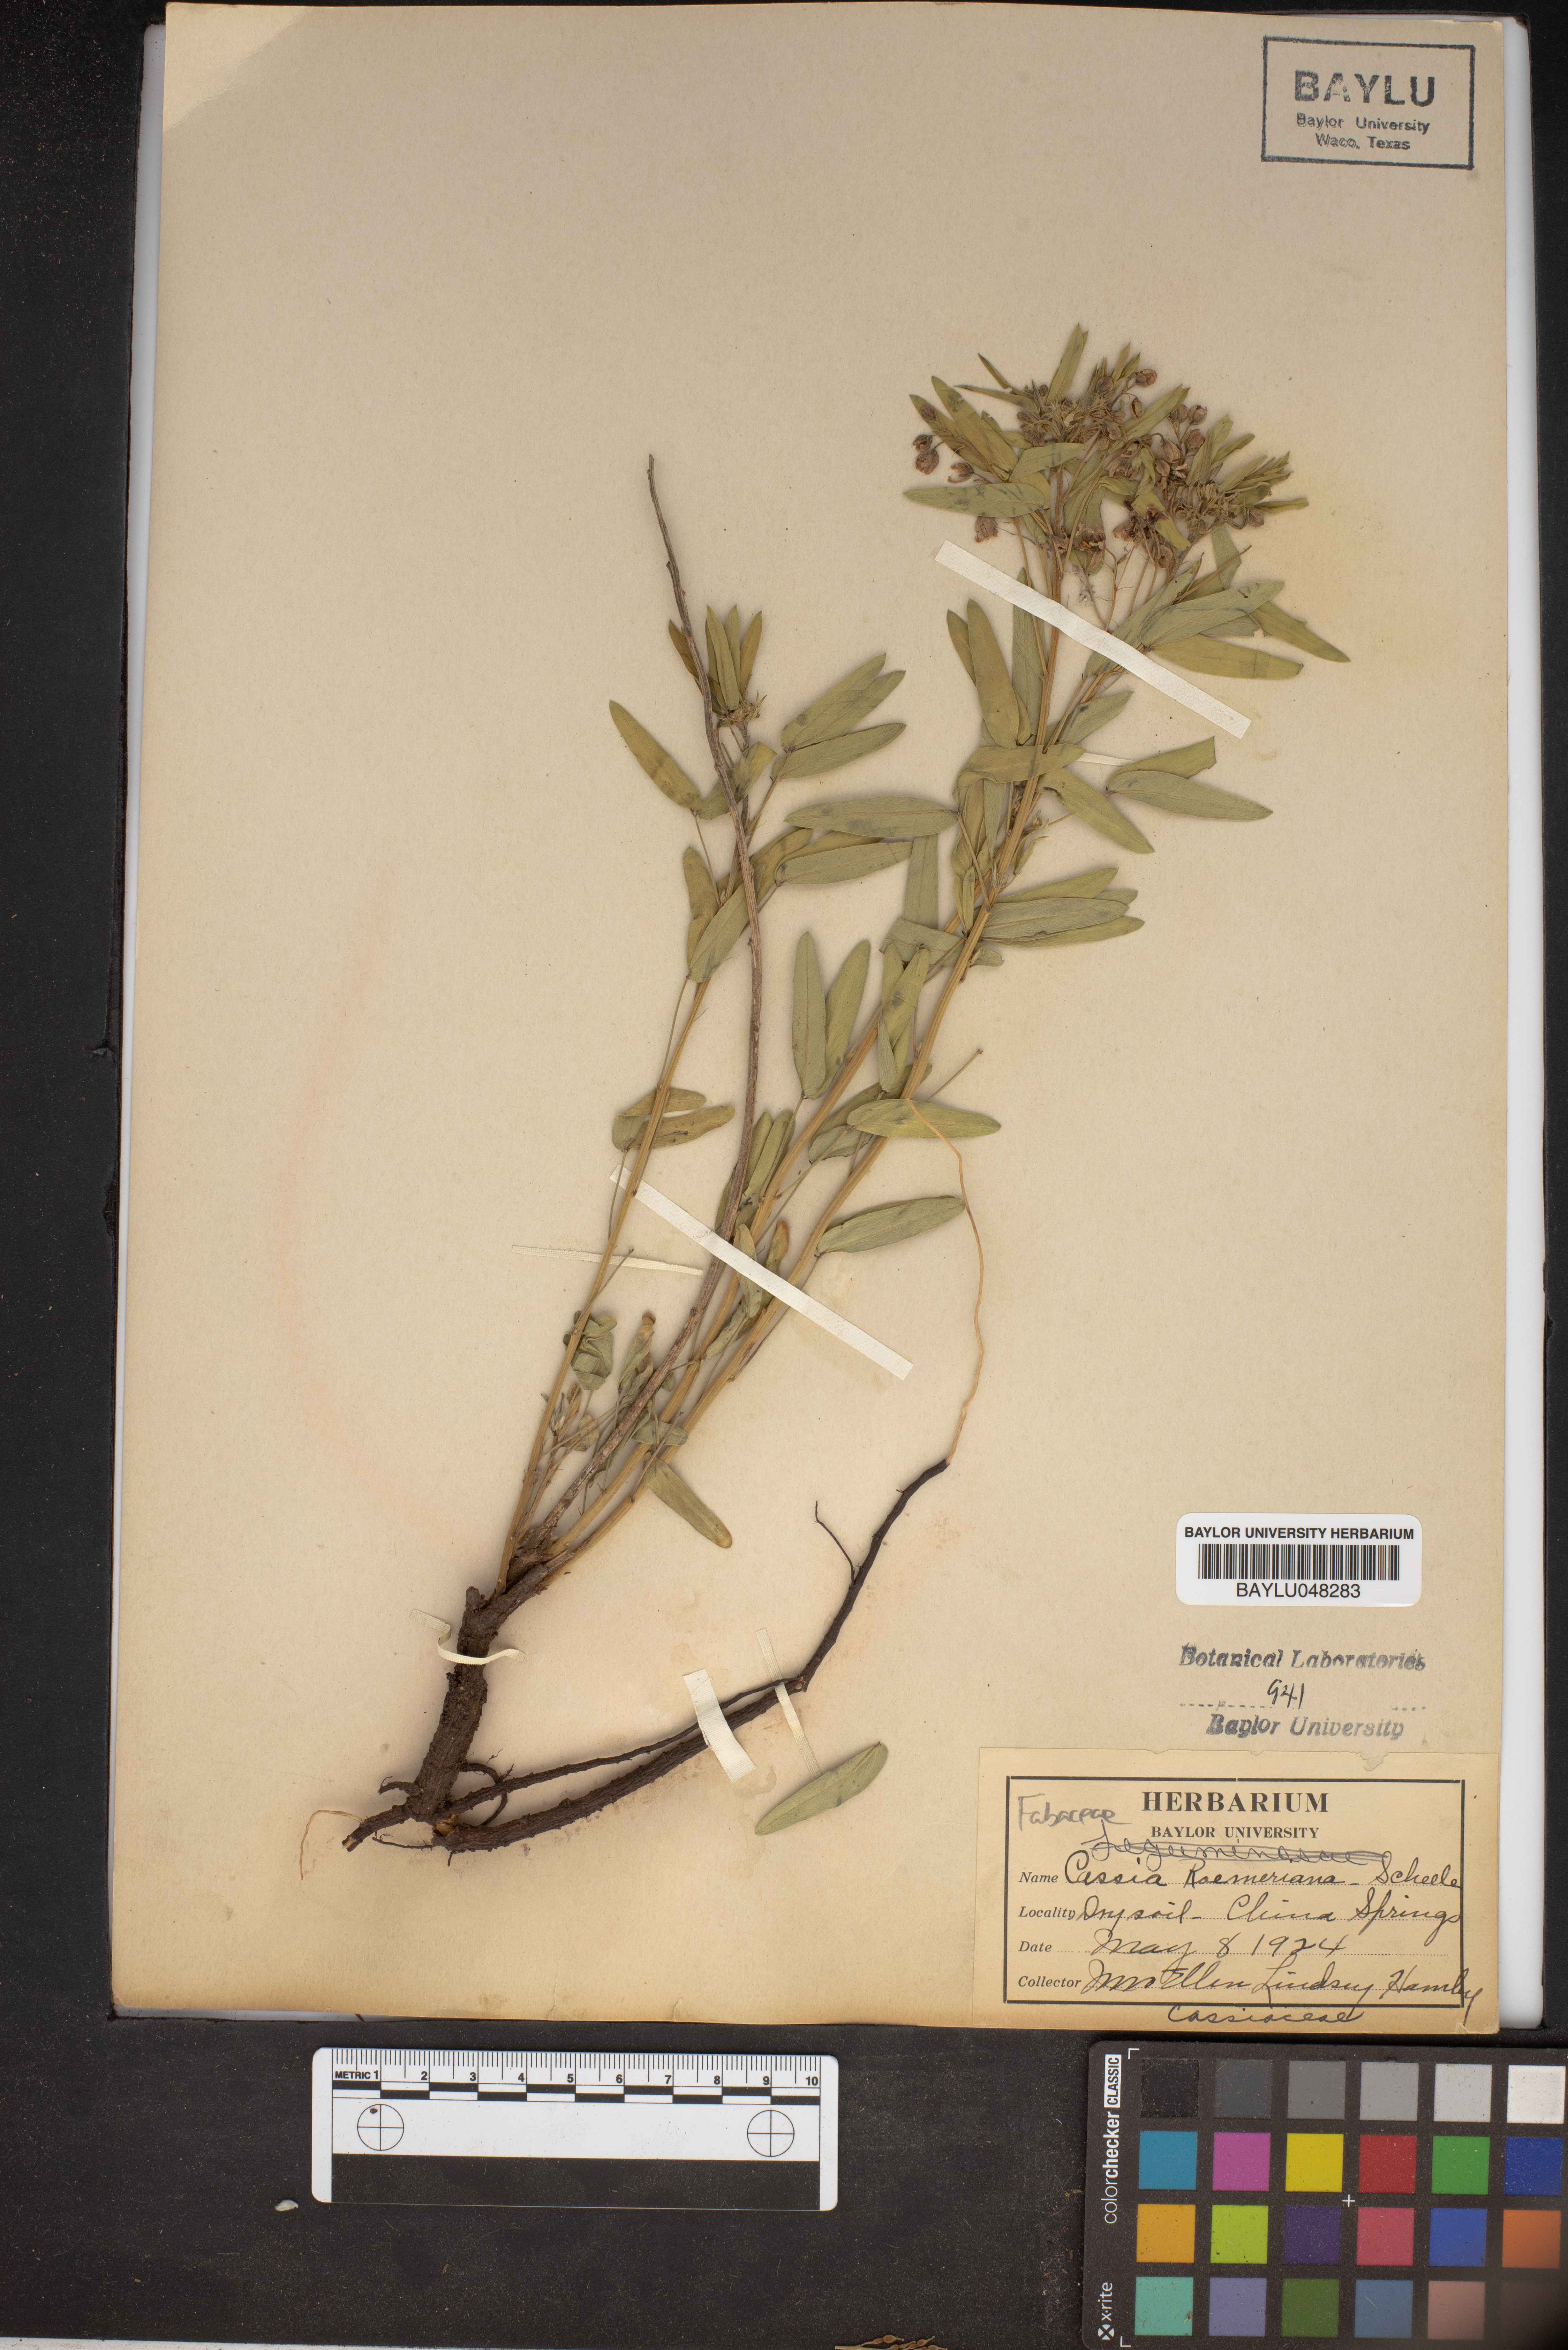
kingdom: Plantae
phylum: Tracheophyta
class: Magnoliopsida
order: Fabales
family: Fabaceae
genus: Senna
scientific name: Senna roemeriana
